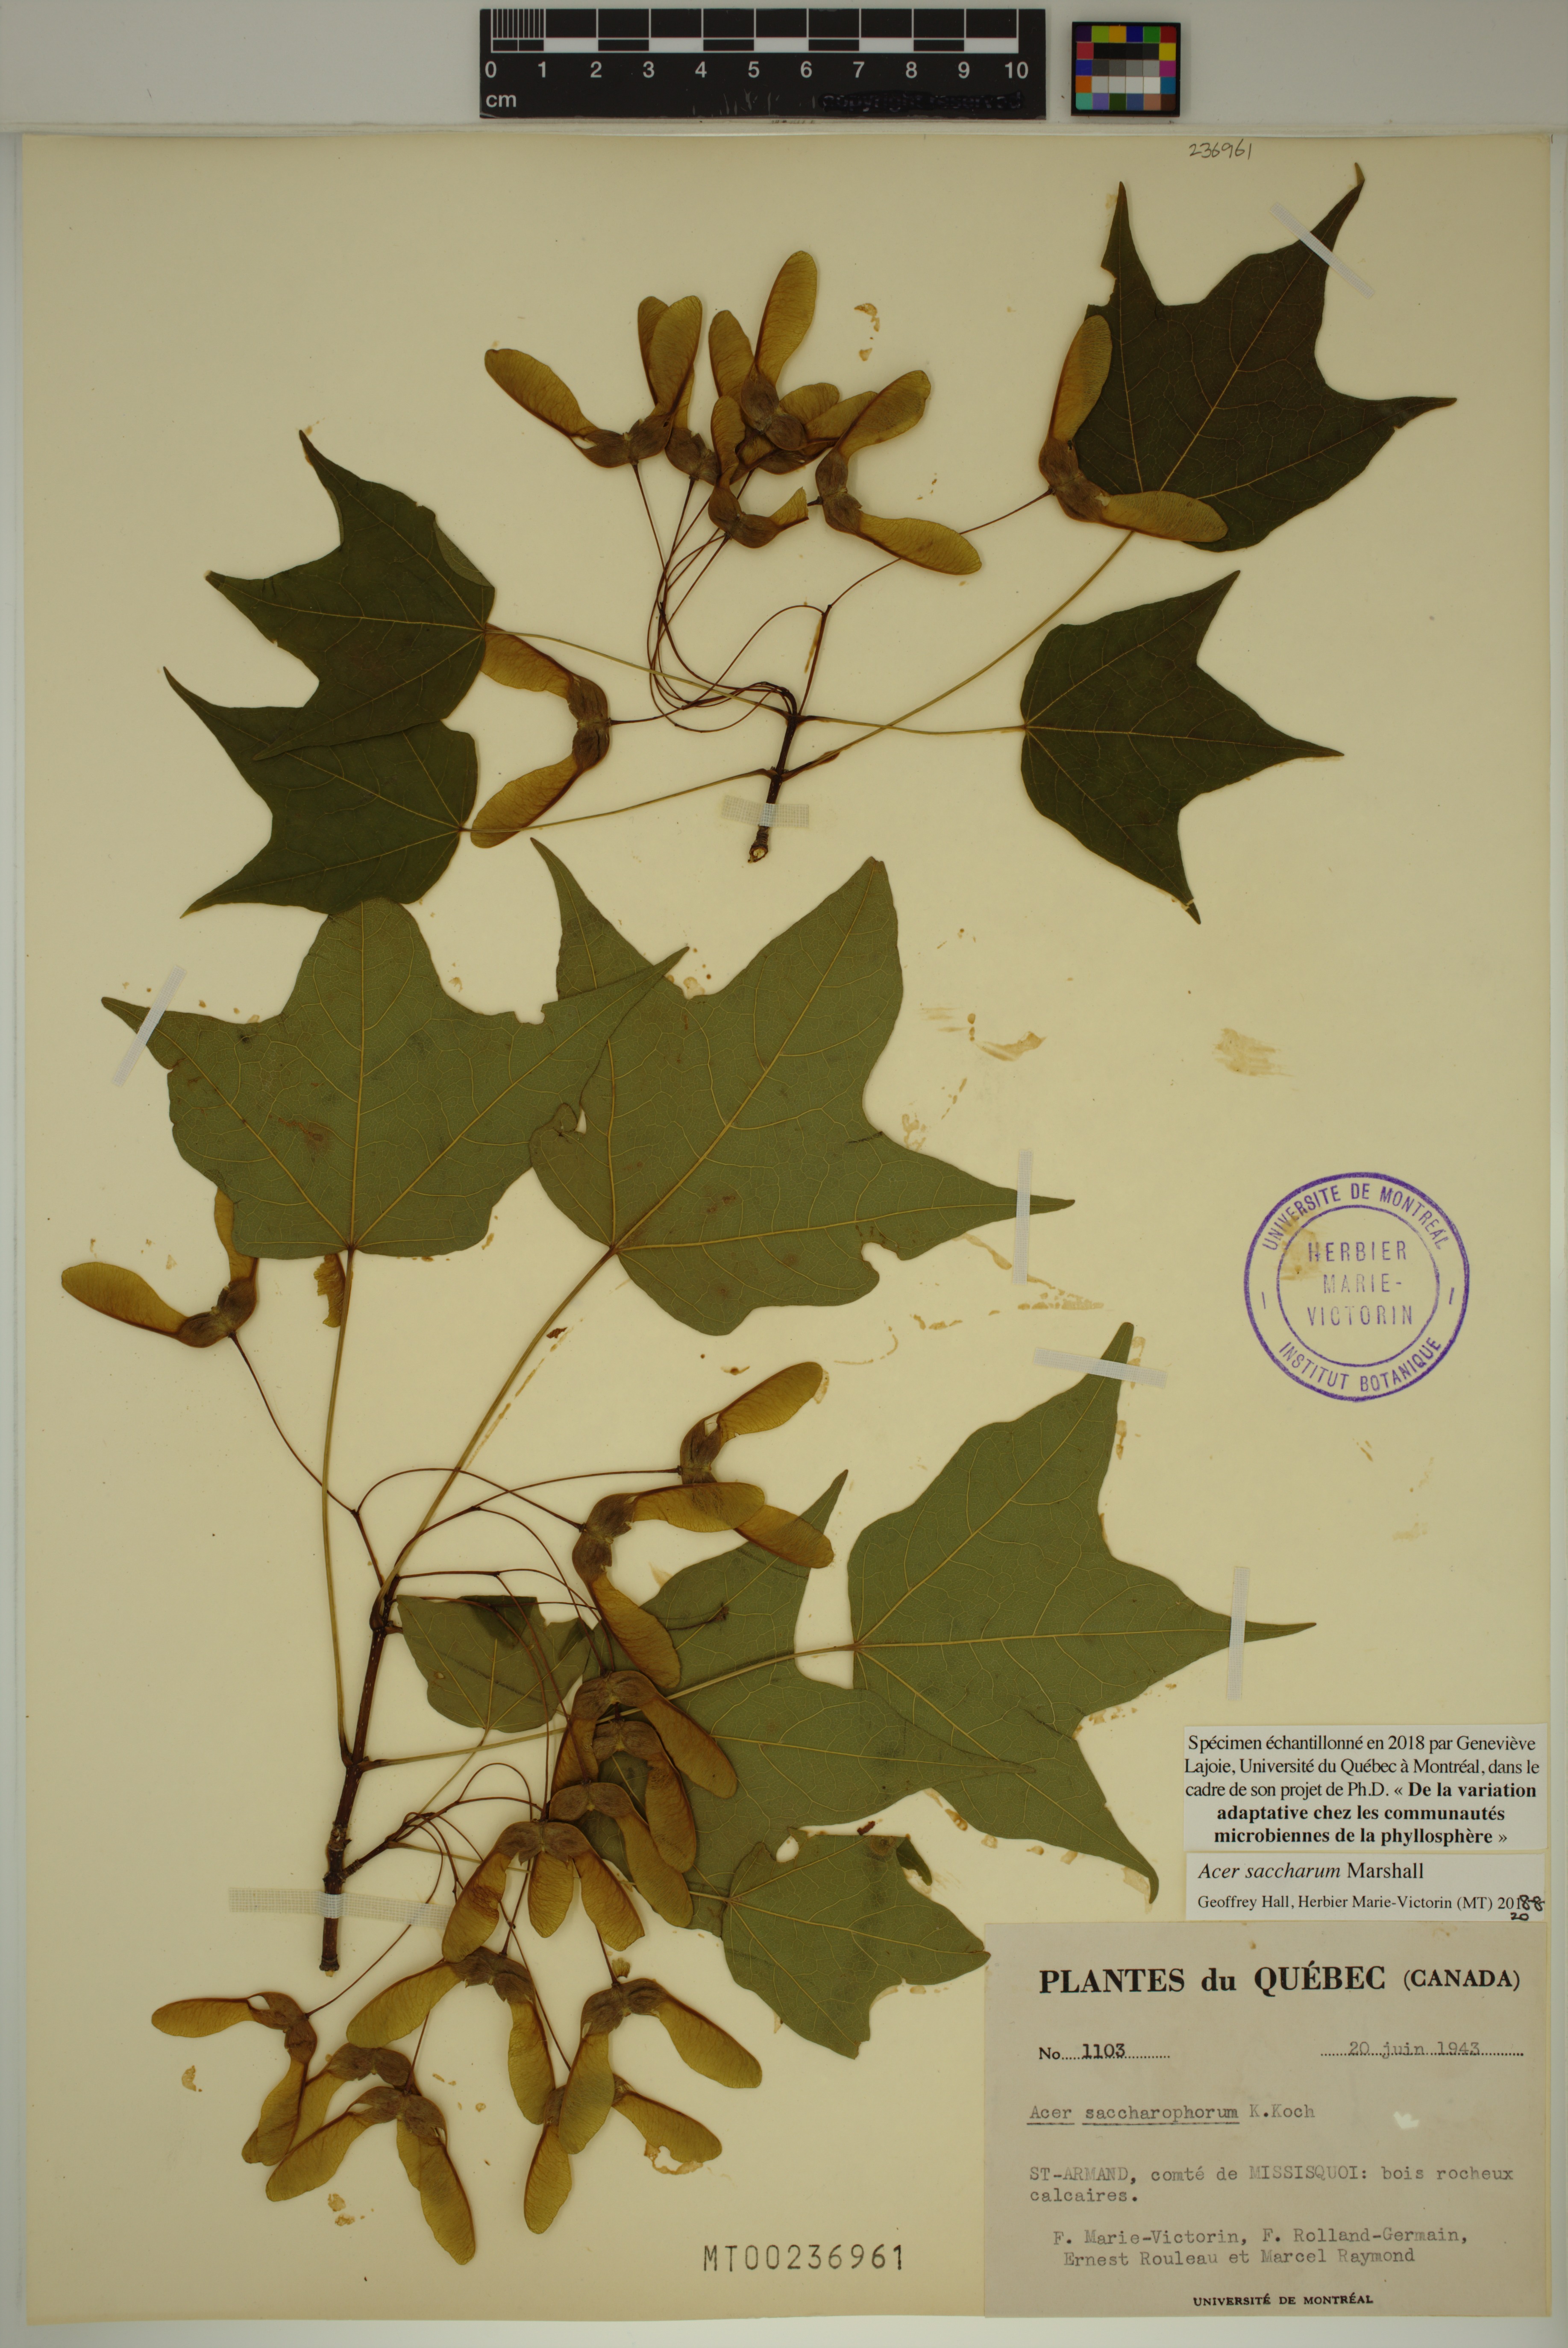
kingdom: Plantae
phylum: Tracheophyta
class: Magnoliopsida
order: Sapindales
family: Sapindaceae
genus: Acer
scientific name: Acer saccharum
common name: Sugar maple
